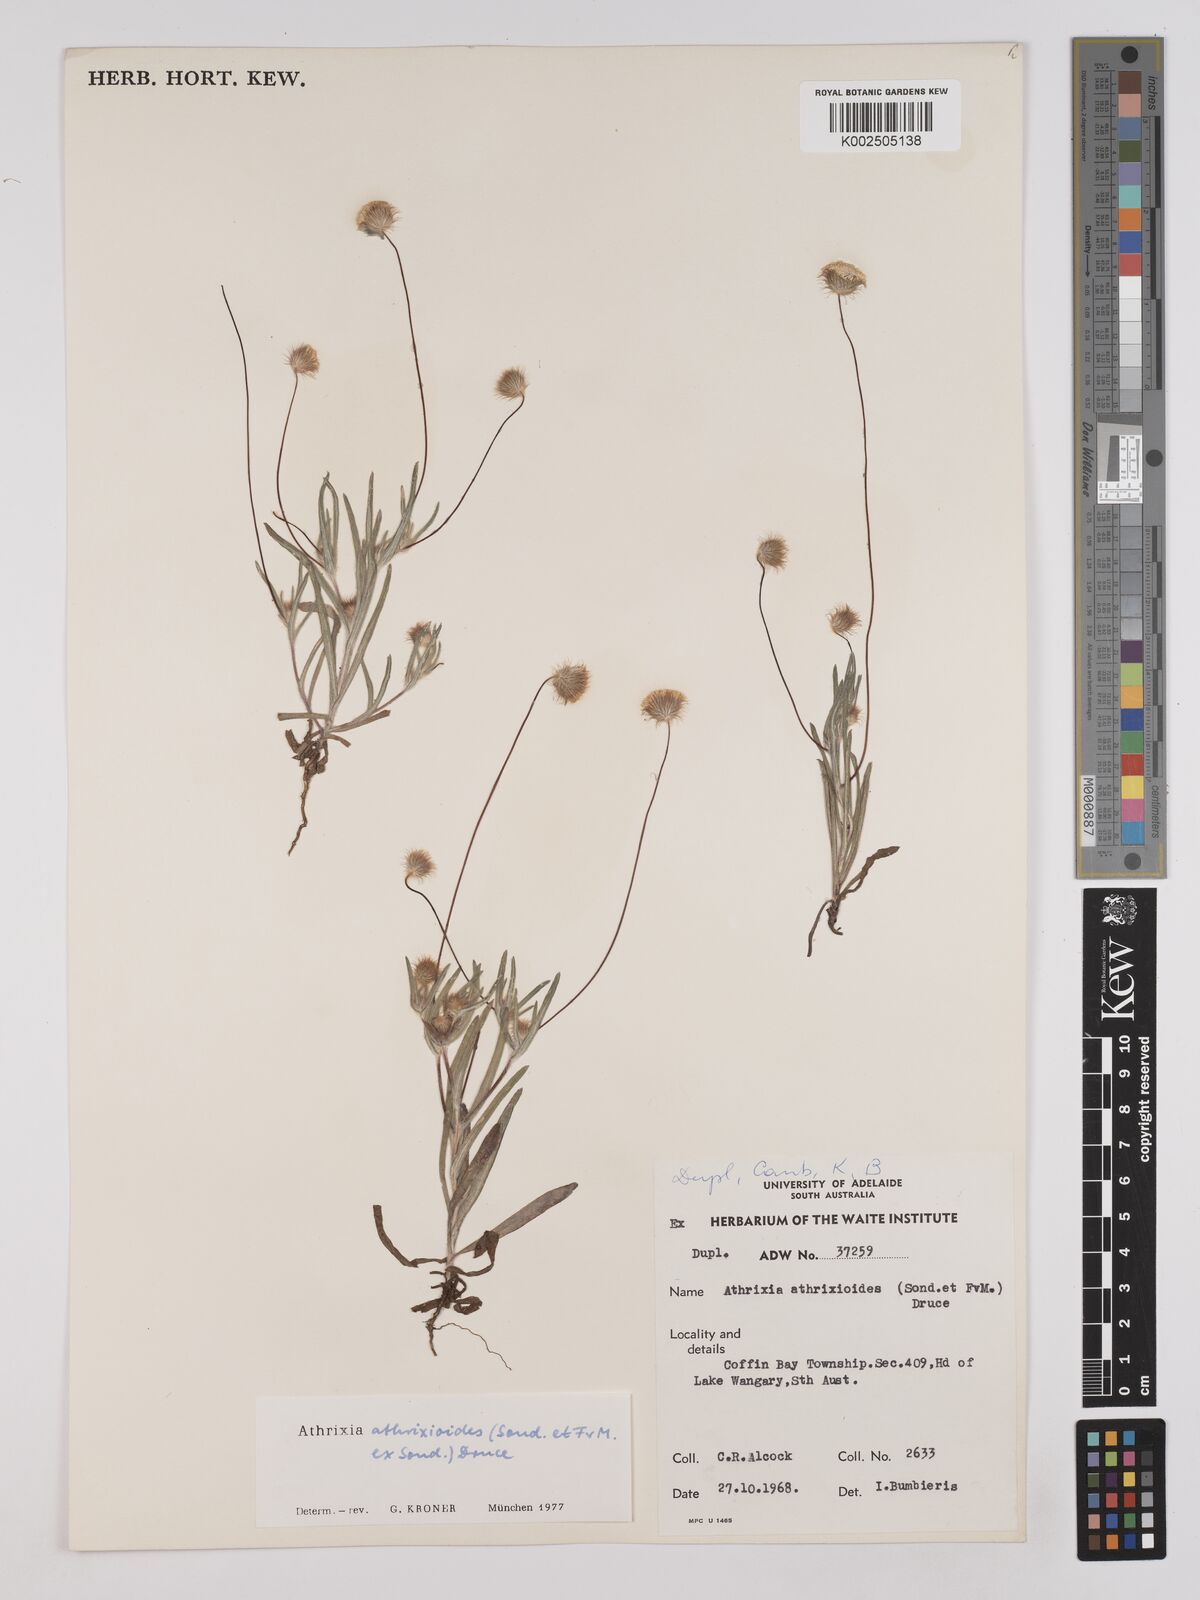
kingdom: Plantae
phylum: Tracheophyta
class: Magnoliopsida
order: Asterales
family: Asteraceae
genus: Asteridea
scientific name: Asteridea athrixioides
